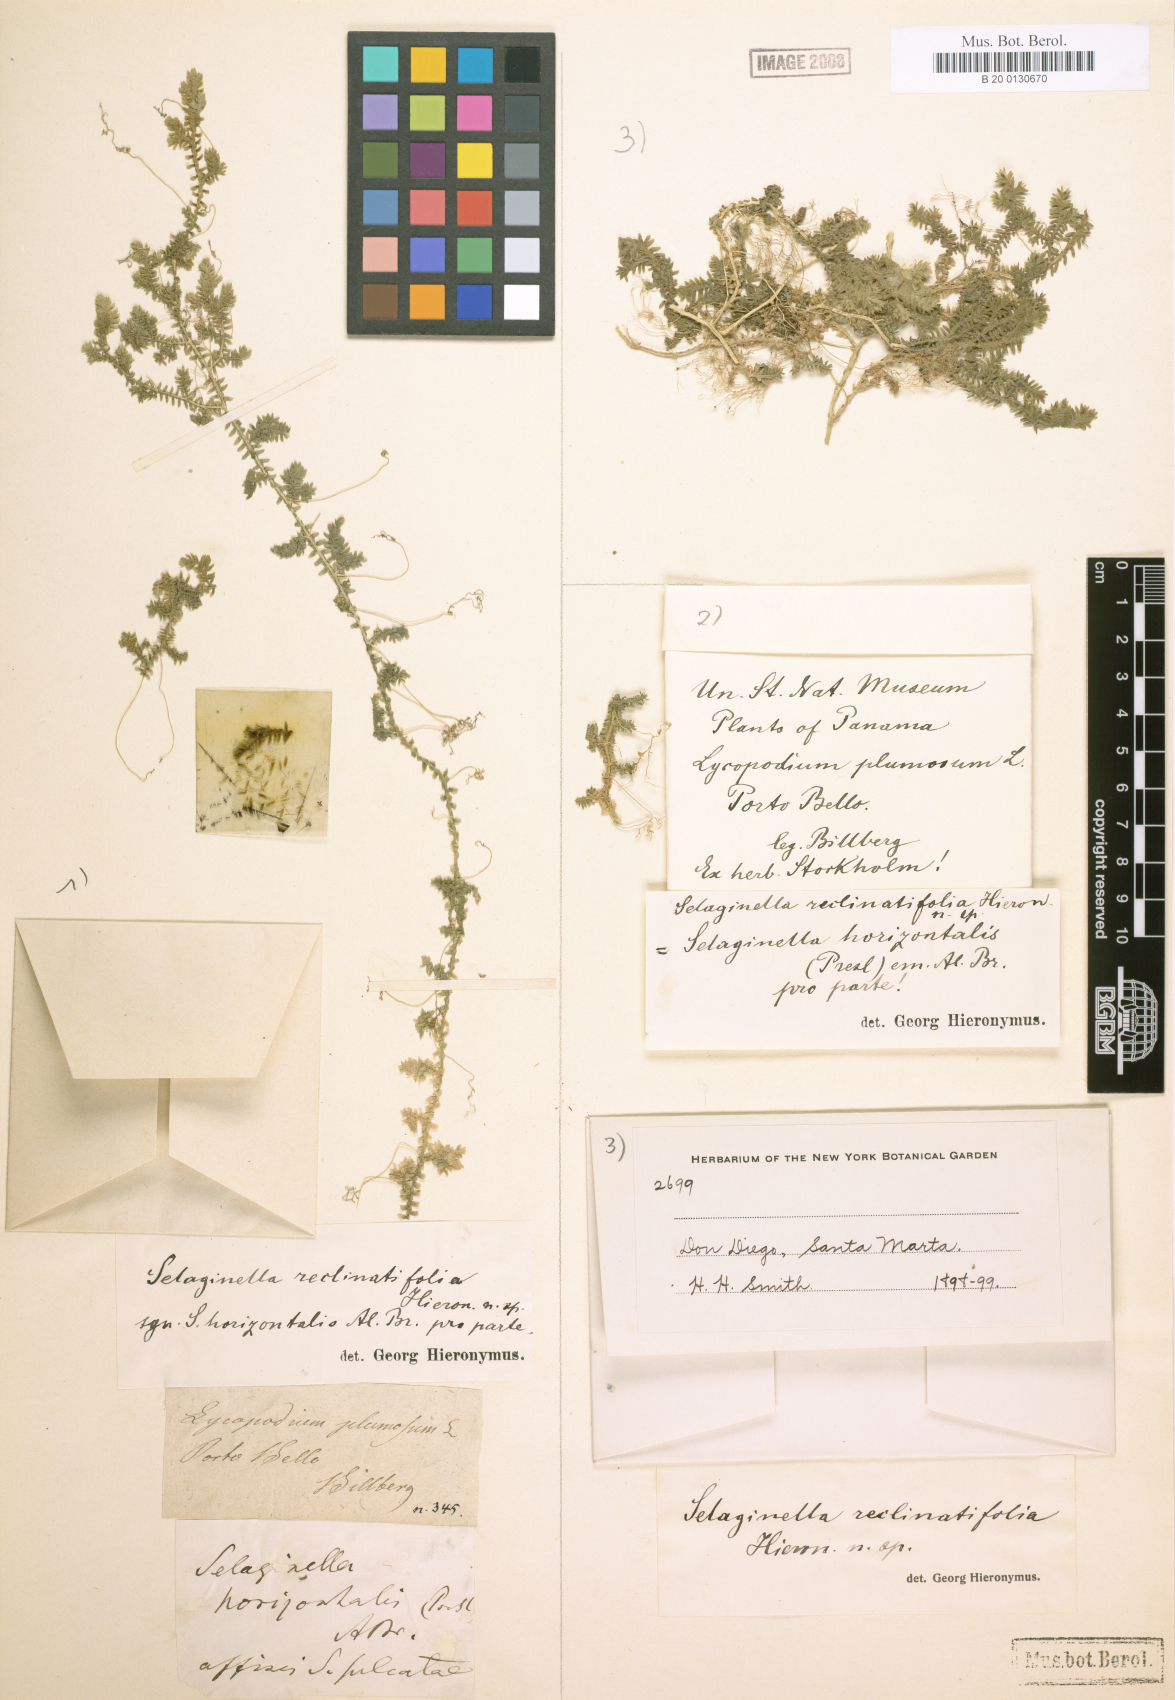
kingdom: Plantae
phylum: Tracheophyta
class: Lycopodiopsida
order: Selaginellales
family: Selaginellaceae
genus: Selaginella
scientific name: Selaginella horizontalis
